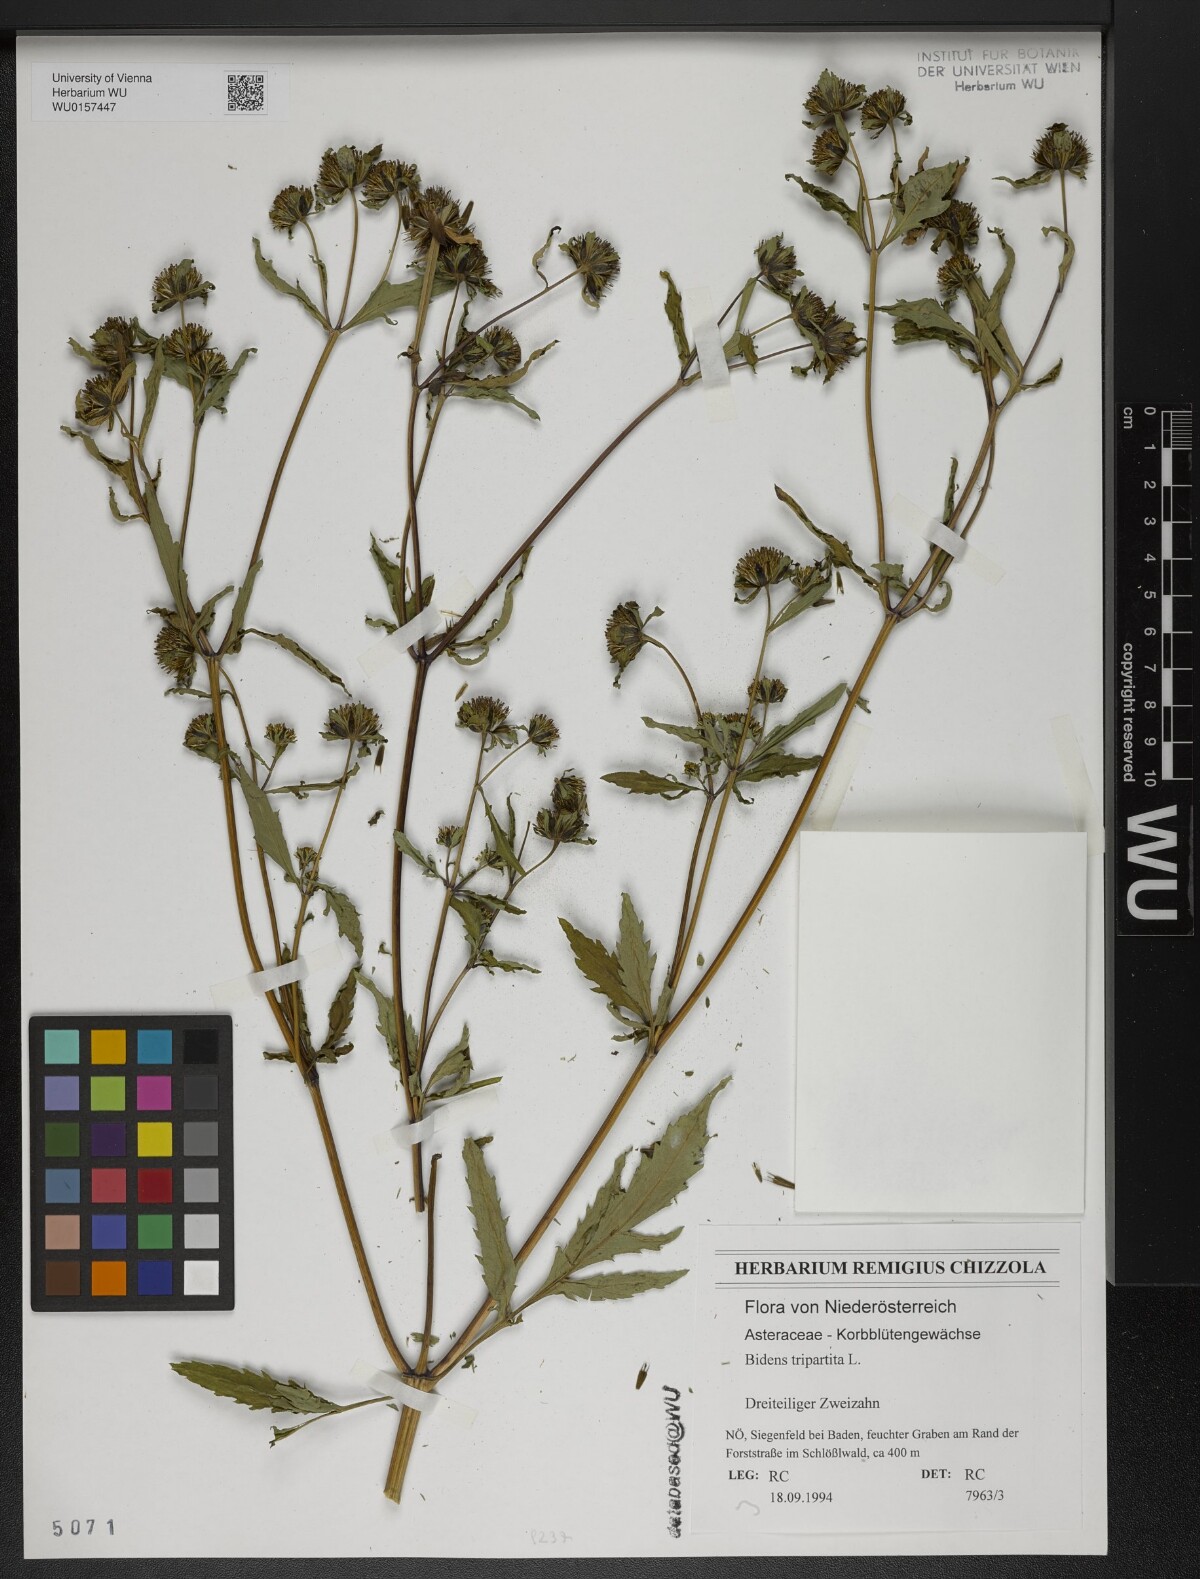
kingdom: Plantae
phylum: Tracheophyta
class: Magnoliopsida
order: Asterales
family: Asteraceae
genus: Bidens
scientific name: Bidens tripartita
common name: Trifid bur-marigold
